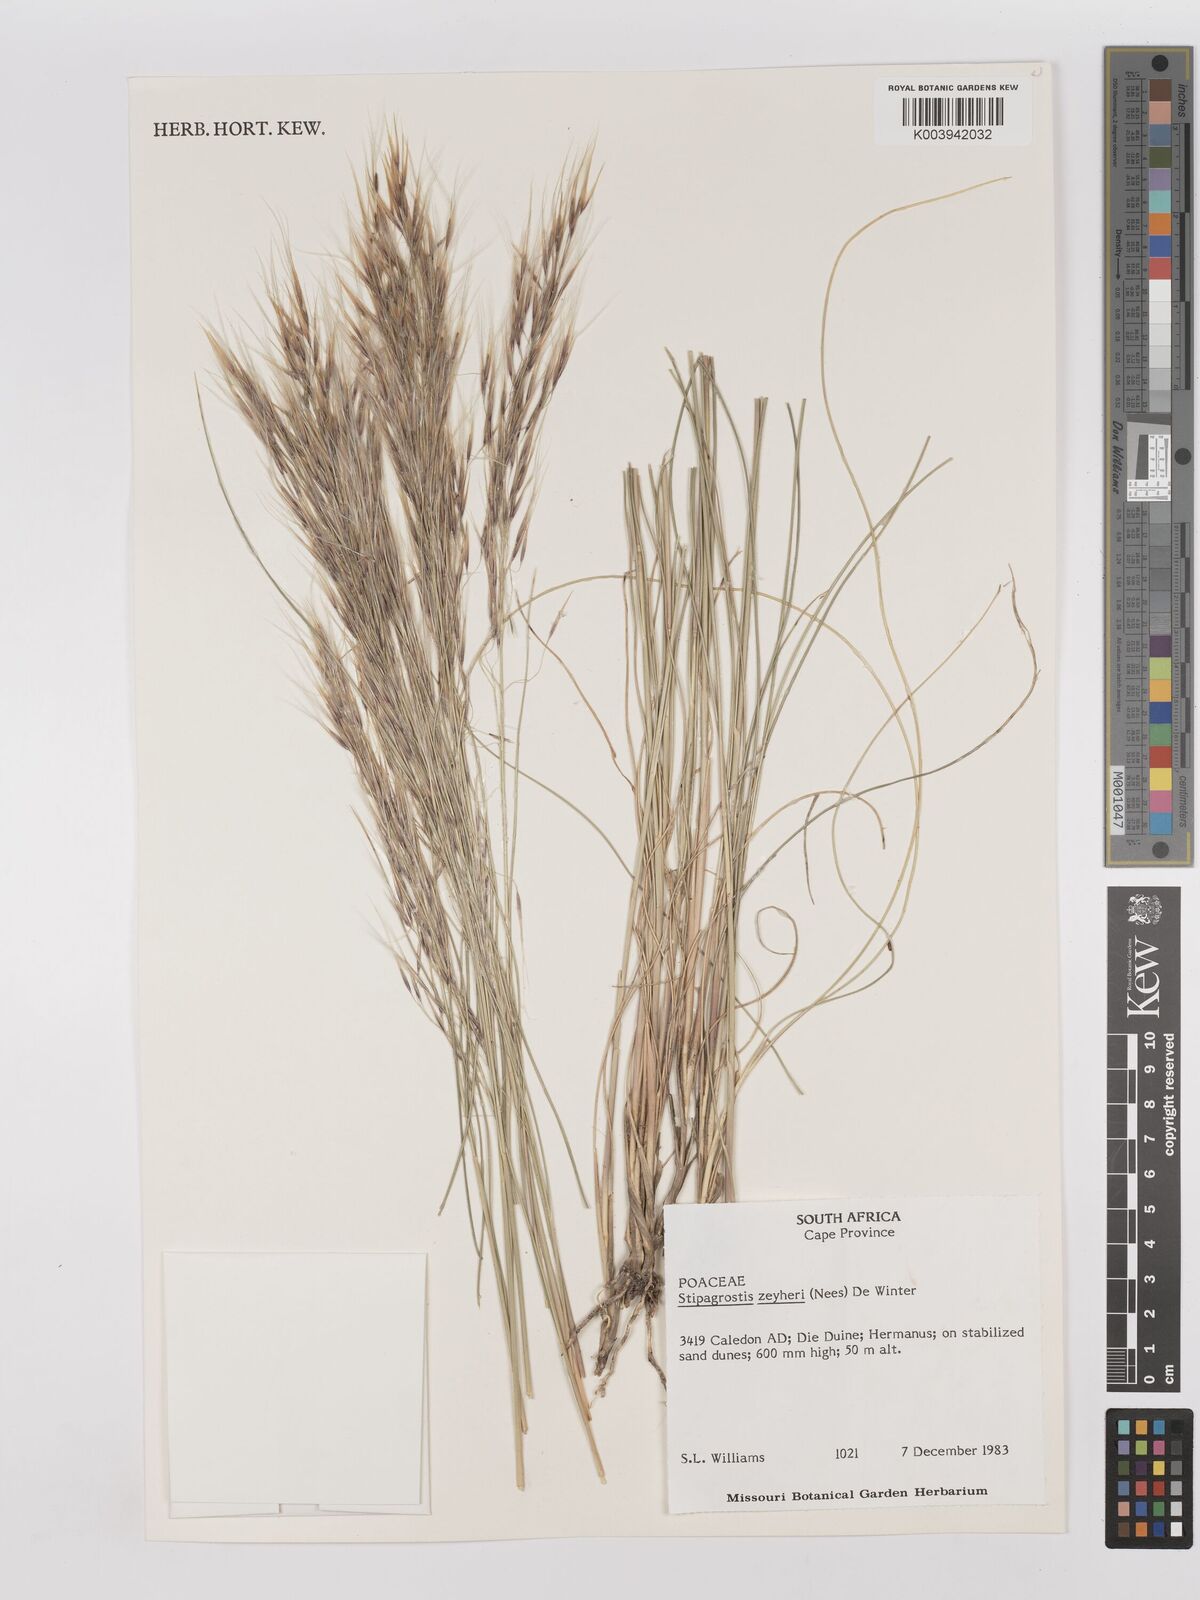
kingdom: Plantae
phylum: Tracheophyta
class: Liliopsida
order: Poales
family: Poaceae
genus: Stipagrostis
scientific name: Stipagrostis zeyheri
